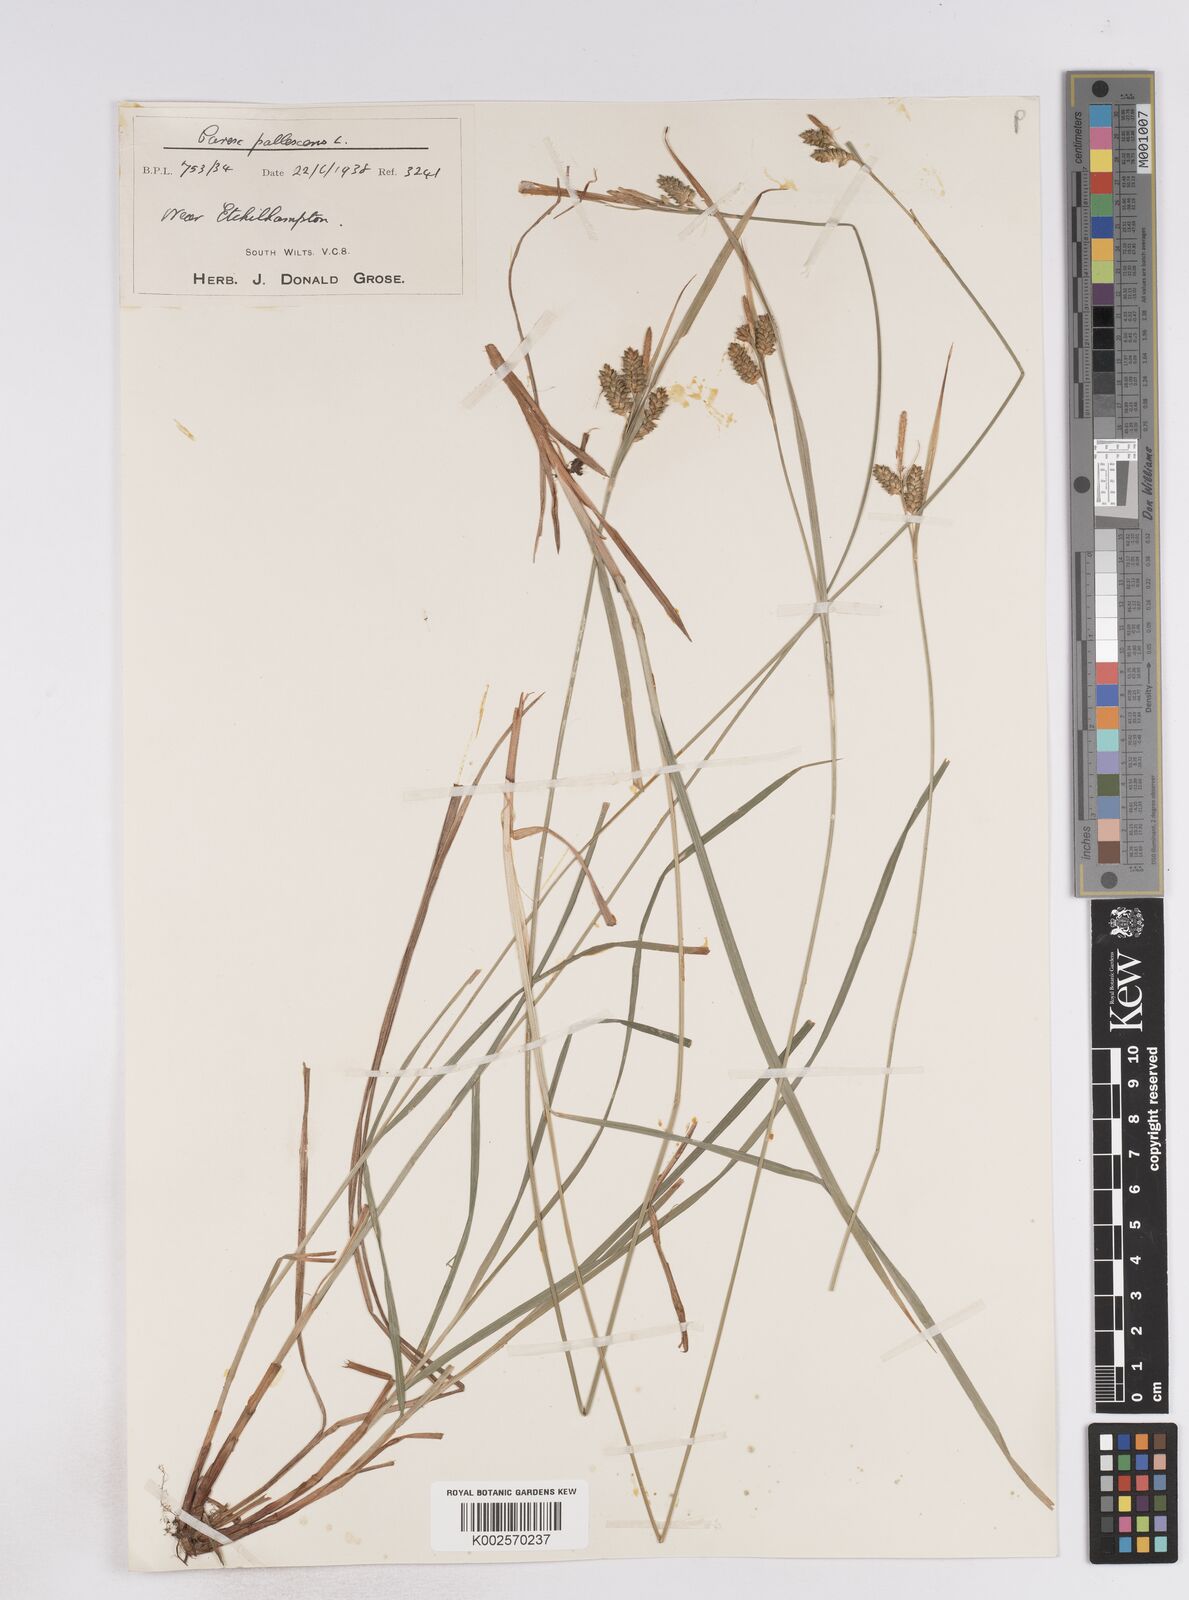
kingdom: Plantae
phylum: Tracheophyta
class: Liliopsida
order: Poales
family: Cyperaceae
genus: Carex
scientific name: Carex pallescens
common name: Pale sedge
